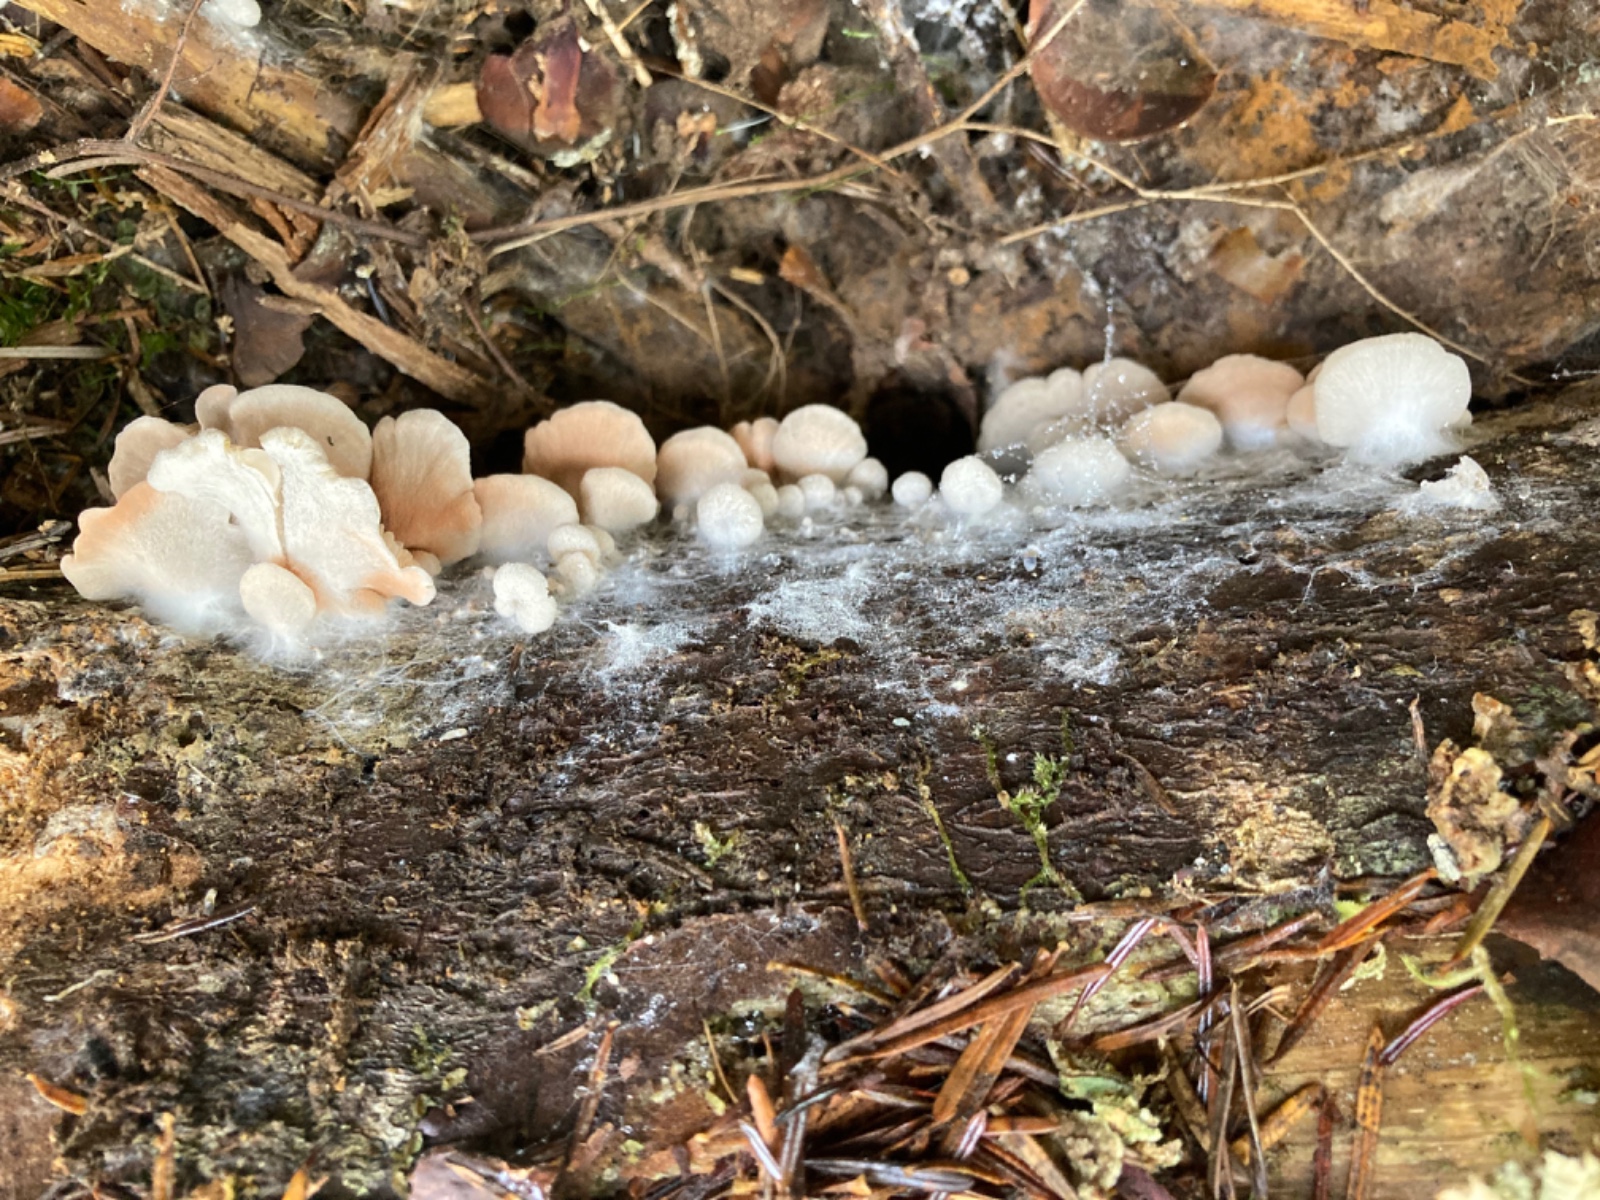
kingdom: Fungi
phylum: Basidiomycota
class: Agaricomycetes
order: Agaricales
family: Entolomataceae
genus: Entoloma
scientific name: Entoloma byssisedum
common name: vifte-rødblad
